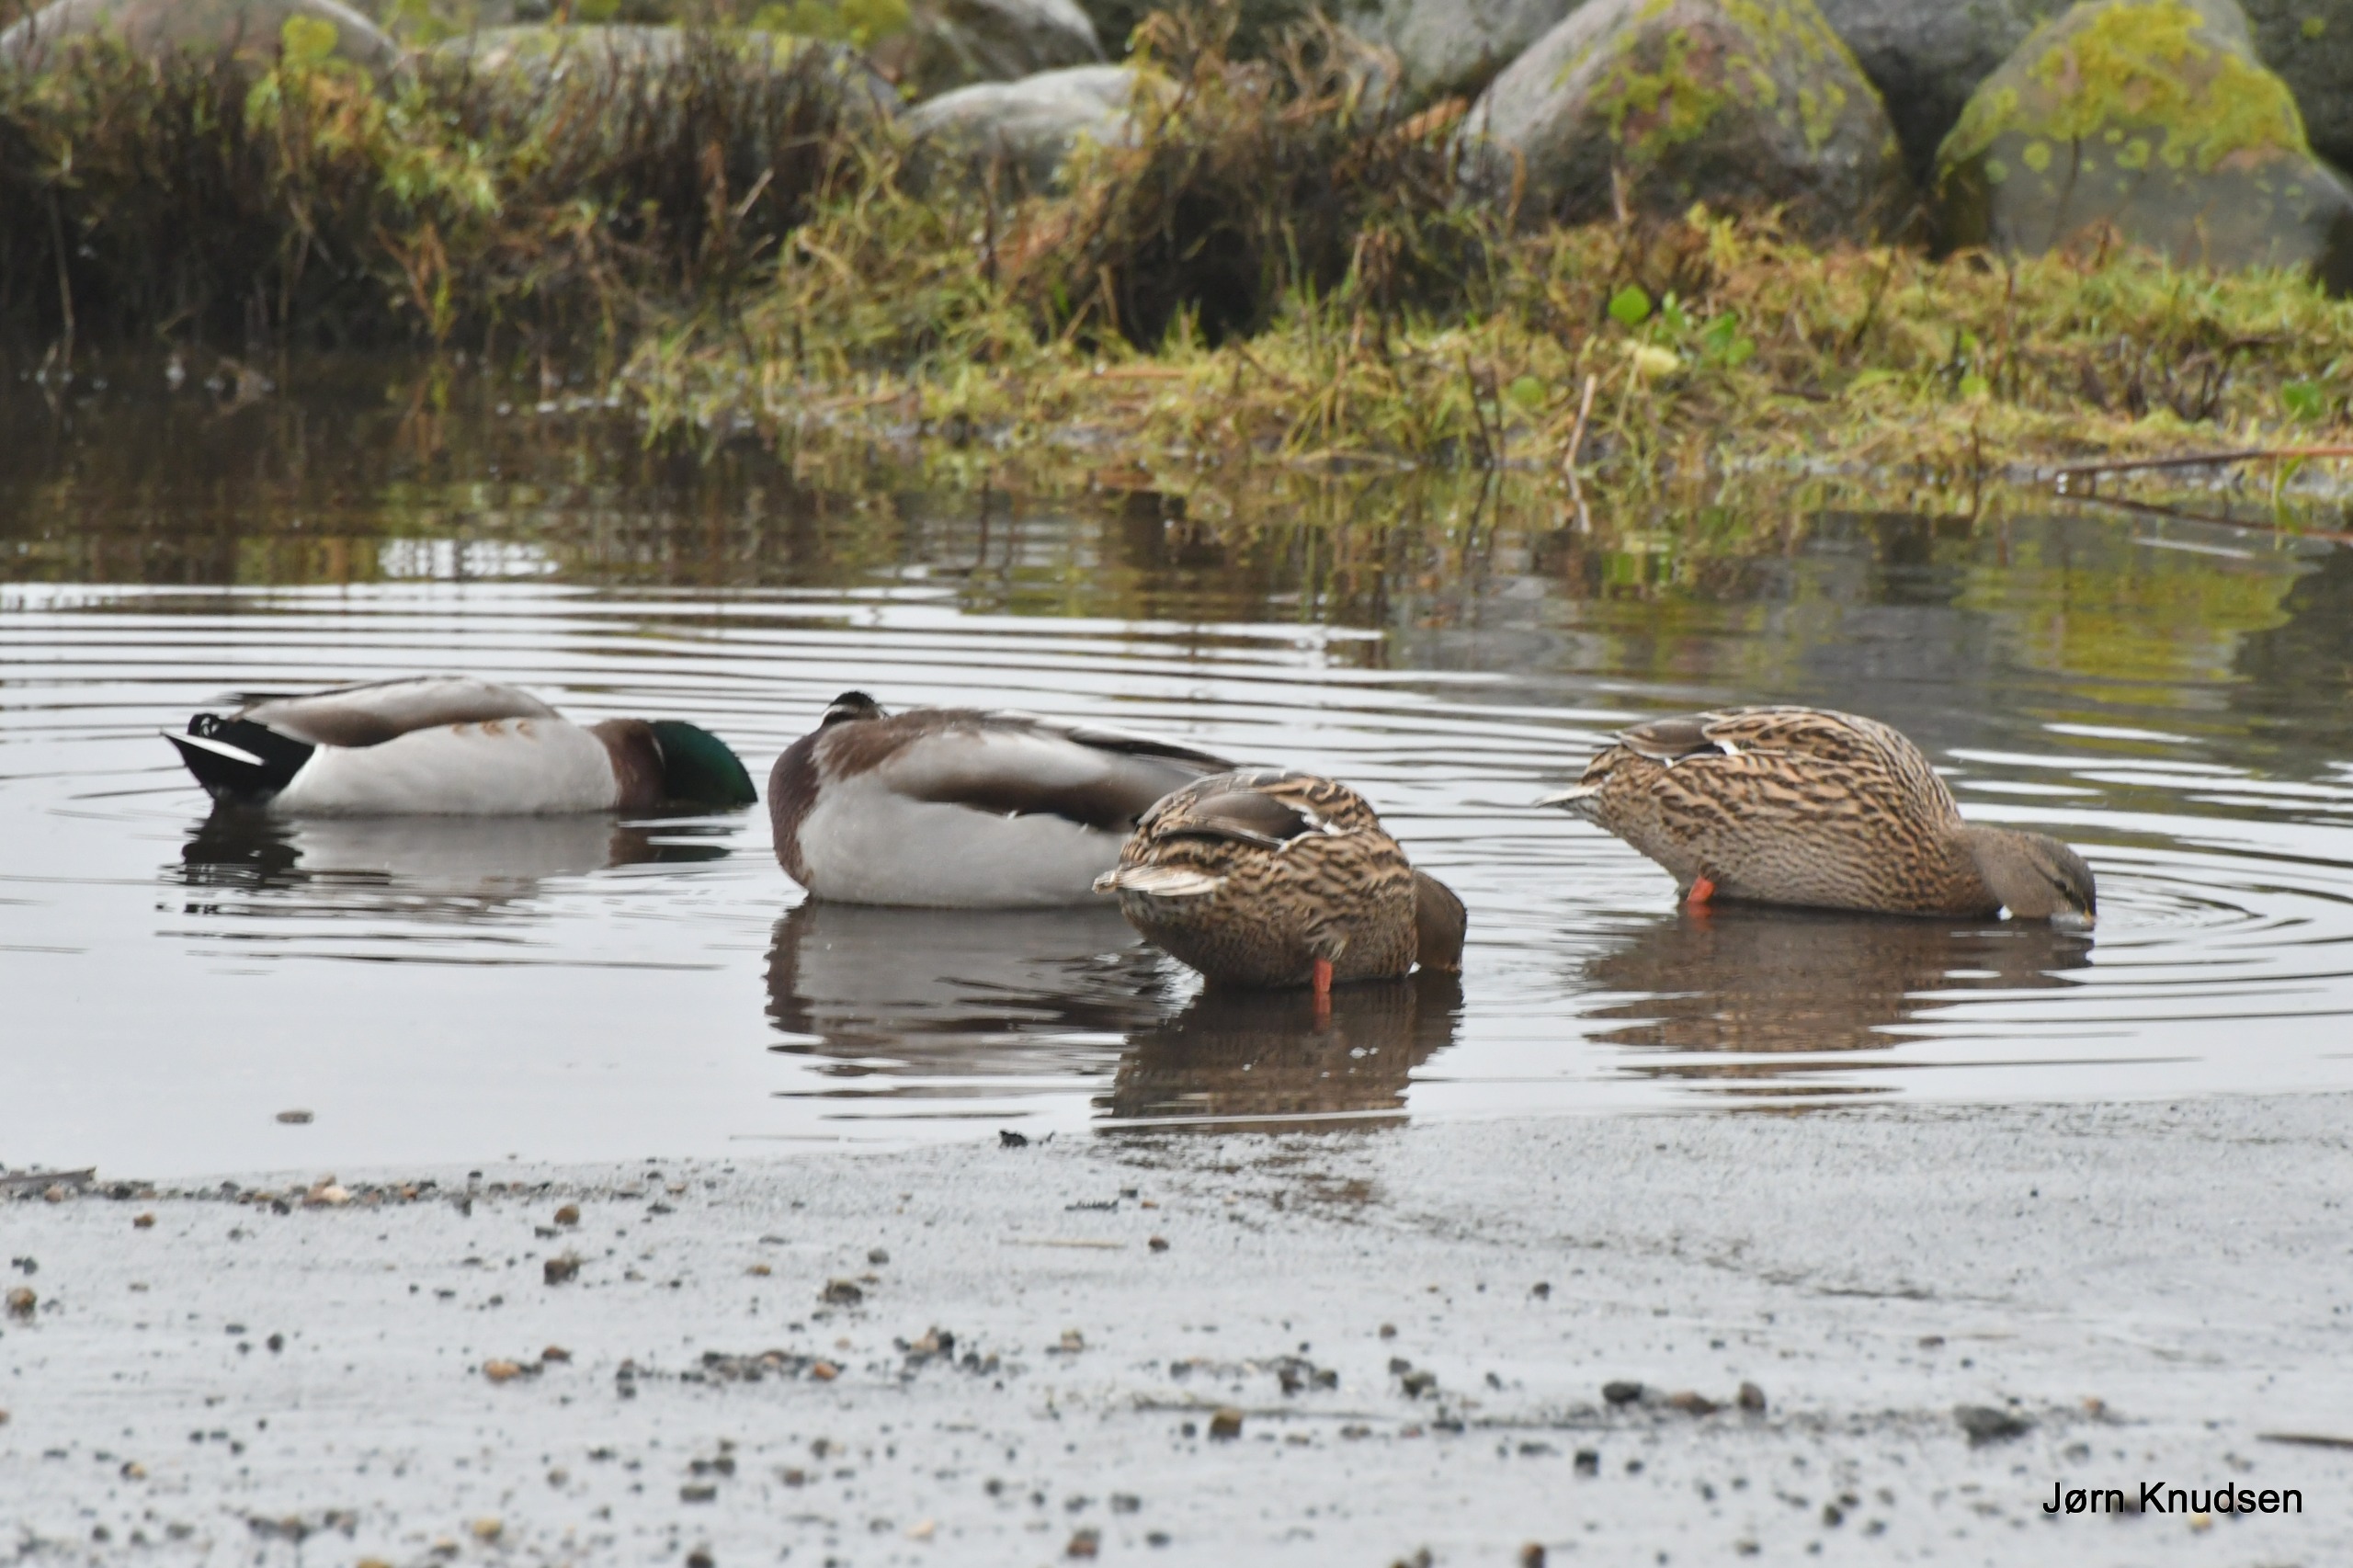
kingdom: Animalia
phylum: Chordata
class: Aves
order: Anseriformes
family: Anatidae
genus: Anas
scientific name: Anas platyrhynchos
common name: Gråand
